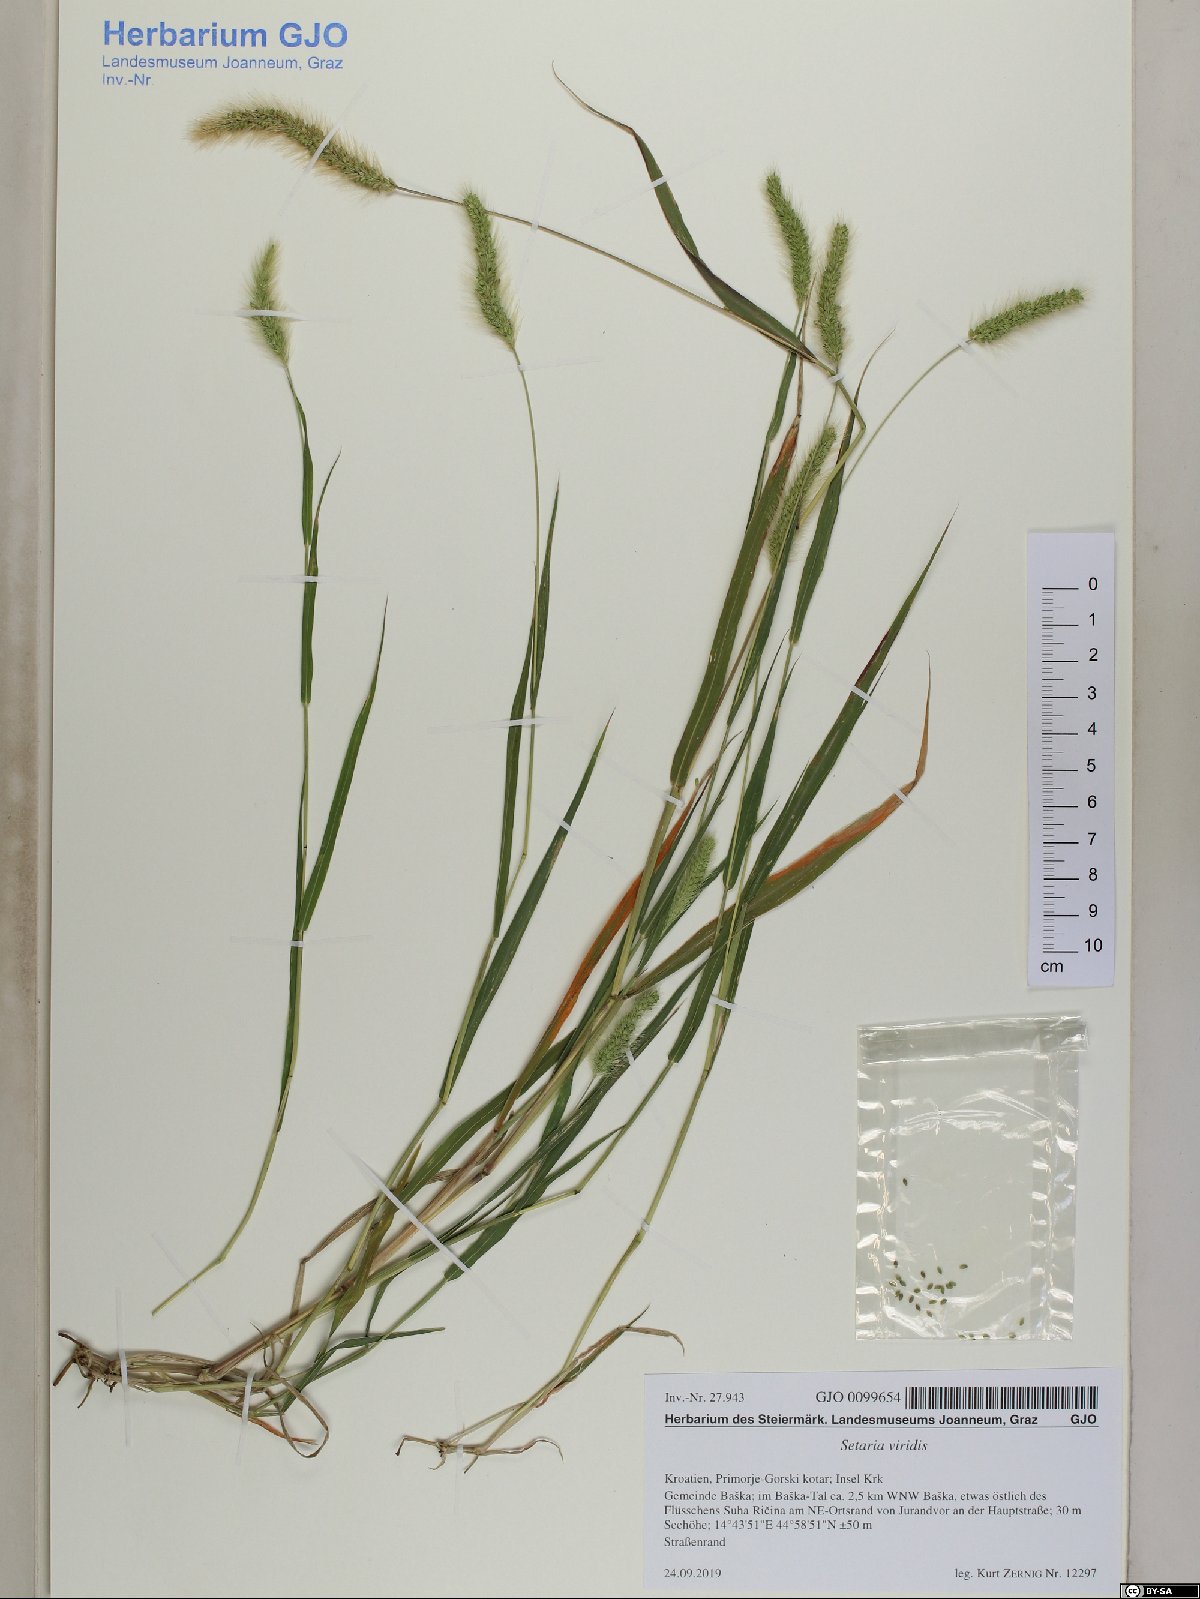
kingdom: Plantae
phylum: Tracheophyta
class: Liliopsida
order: Poales
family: Poaceae
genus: Setaria
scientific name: Setaria viridis
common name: Green bristlegrass
